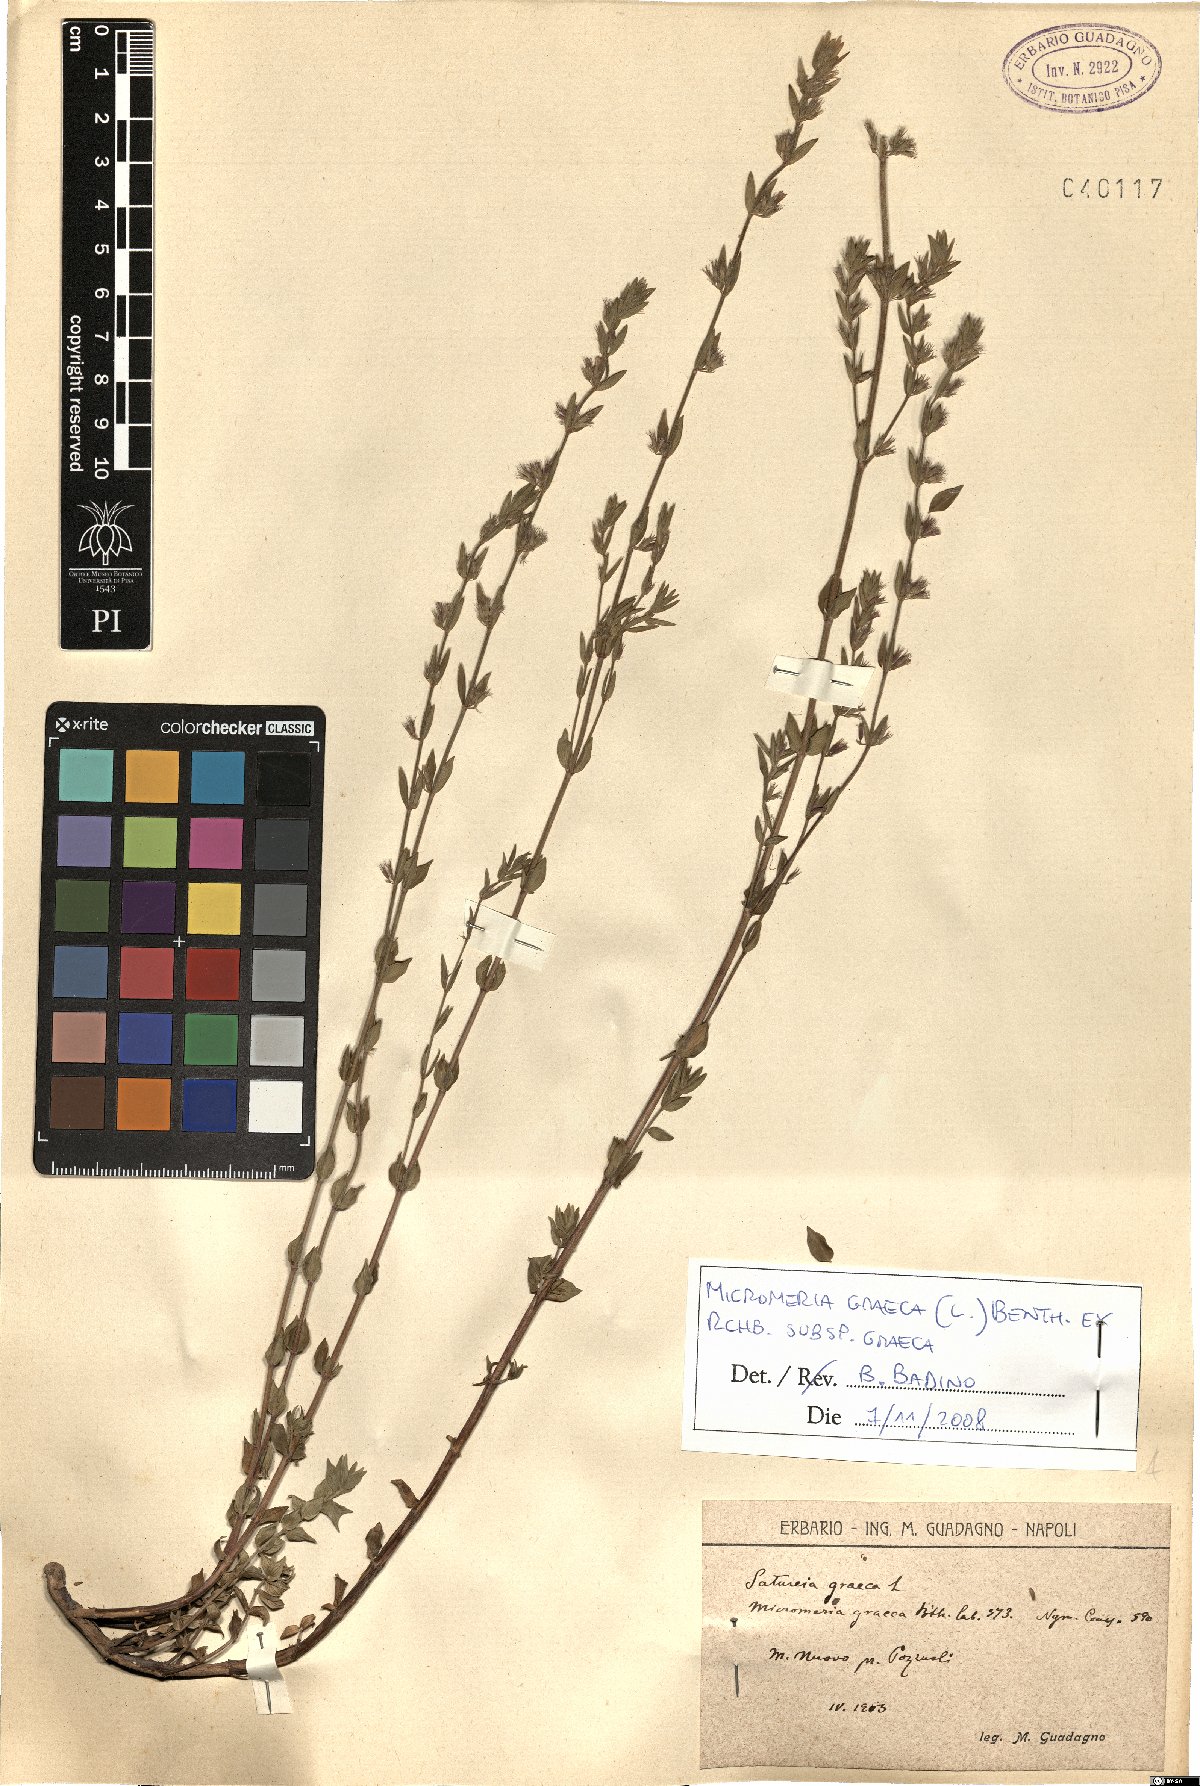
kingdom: Plantae
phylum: Tracheophyta
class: Magnoliopsida
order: Lamiales
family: Lamiaceae
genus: Micromeria
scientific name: Micromeria graeca
